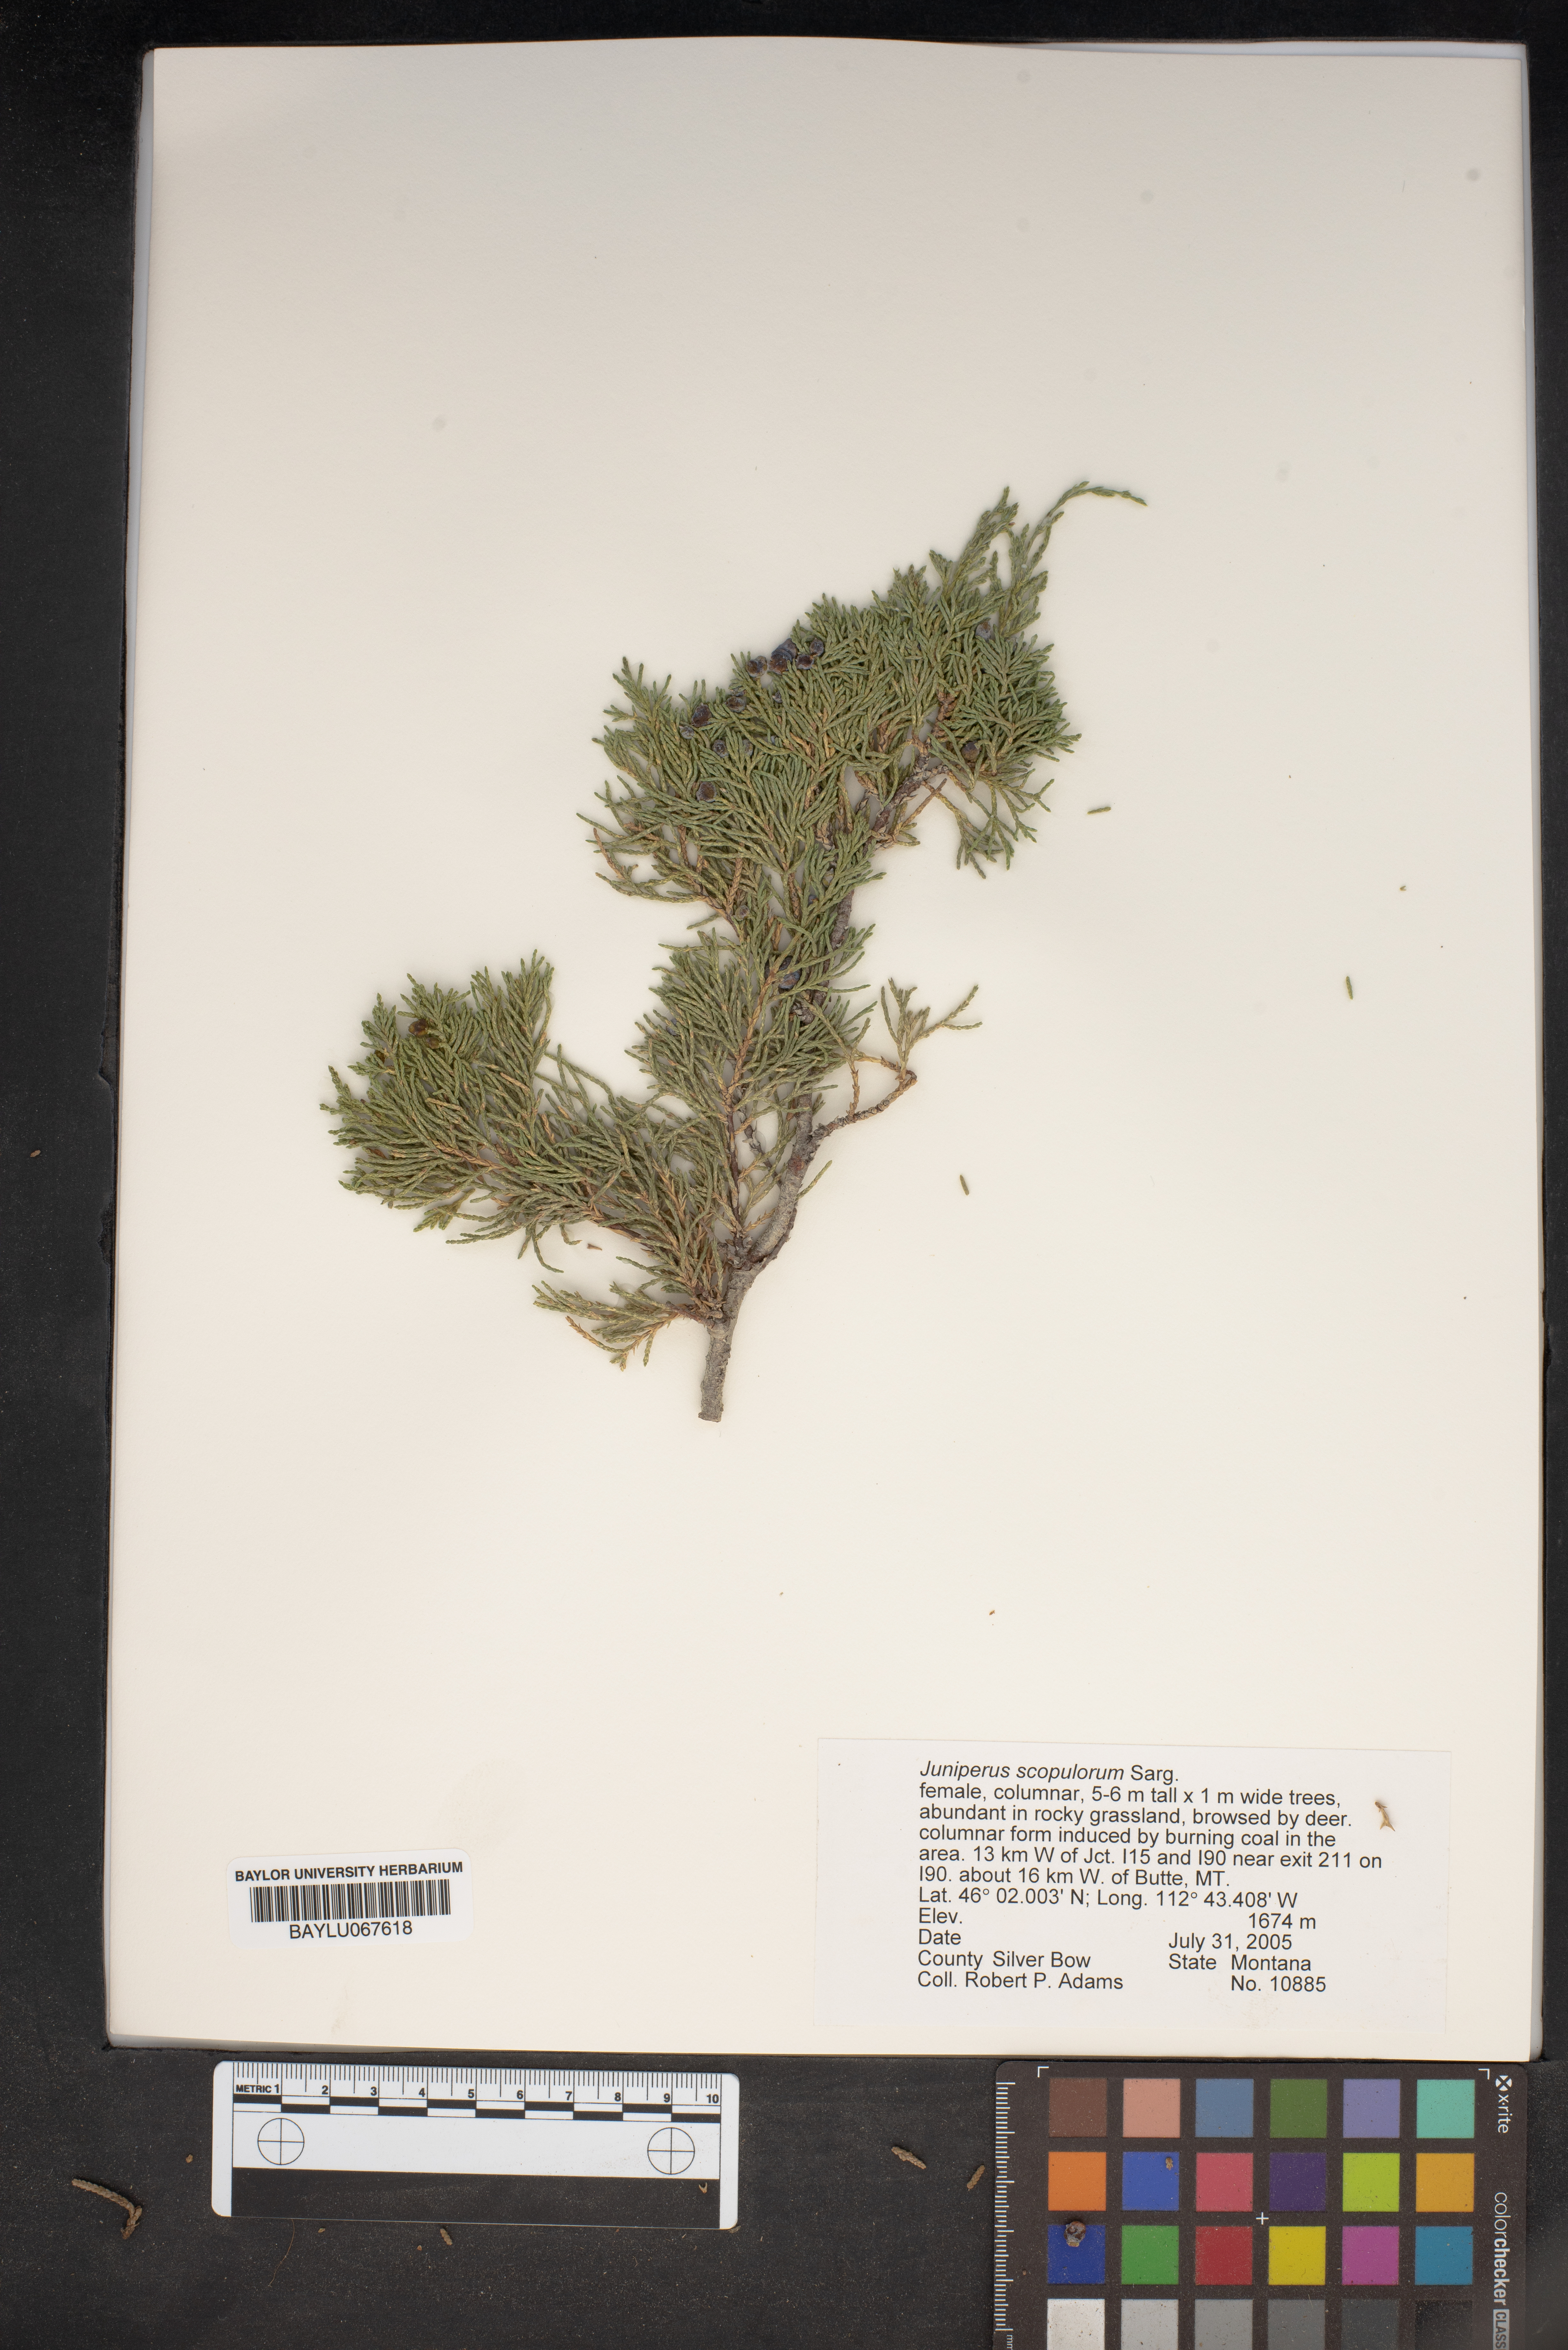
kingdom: Plantae
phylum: Tracheophyta
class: Pinopsida
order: Pinales
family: Cupressaceae
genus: Juniperus
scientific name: Juniperus scopulorum
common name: Rocky mountain juniper
